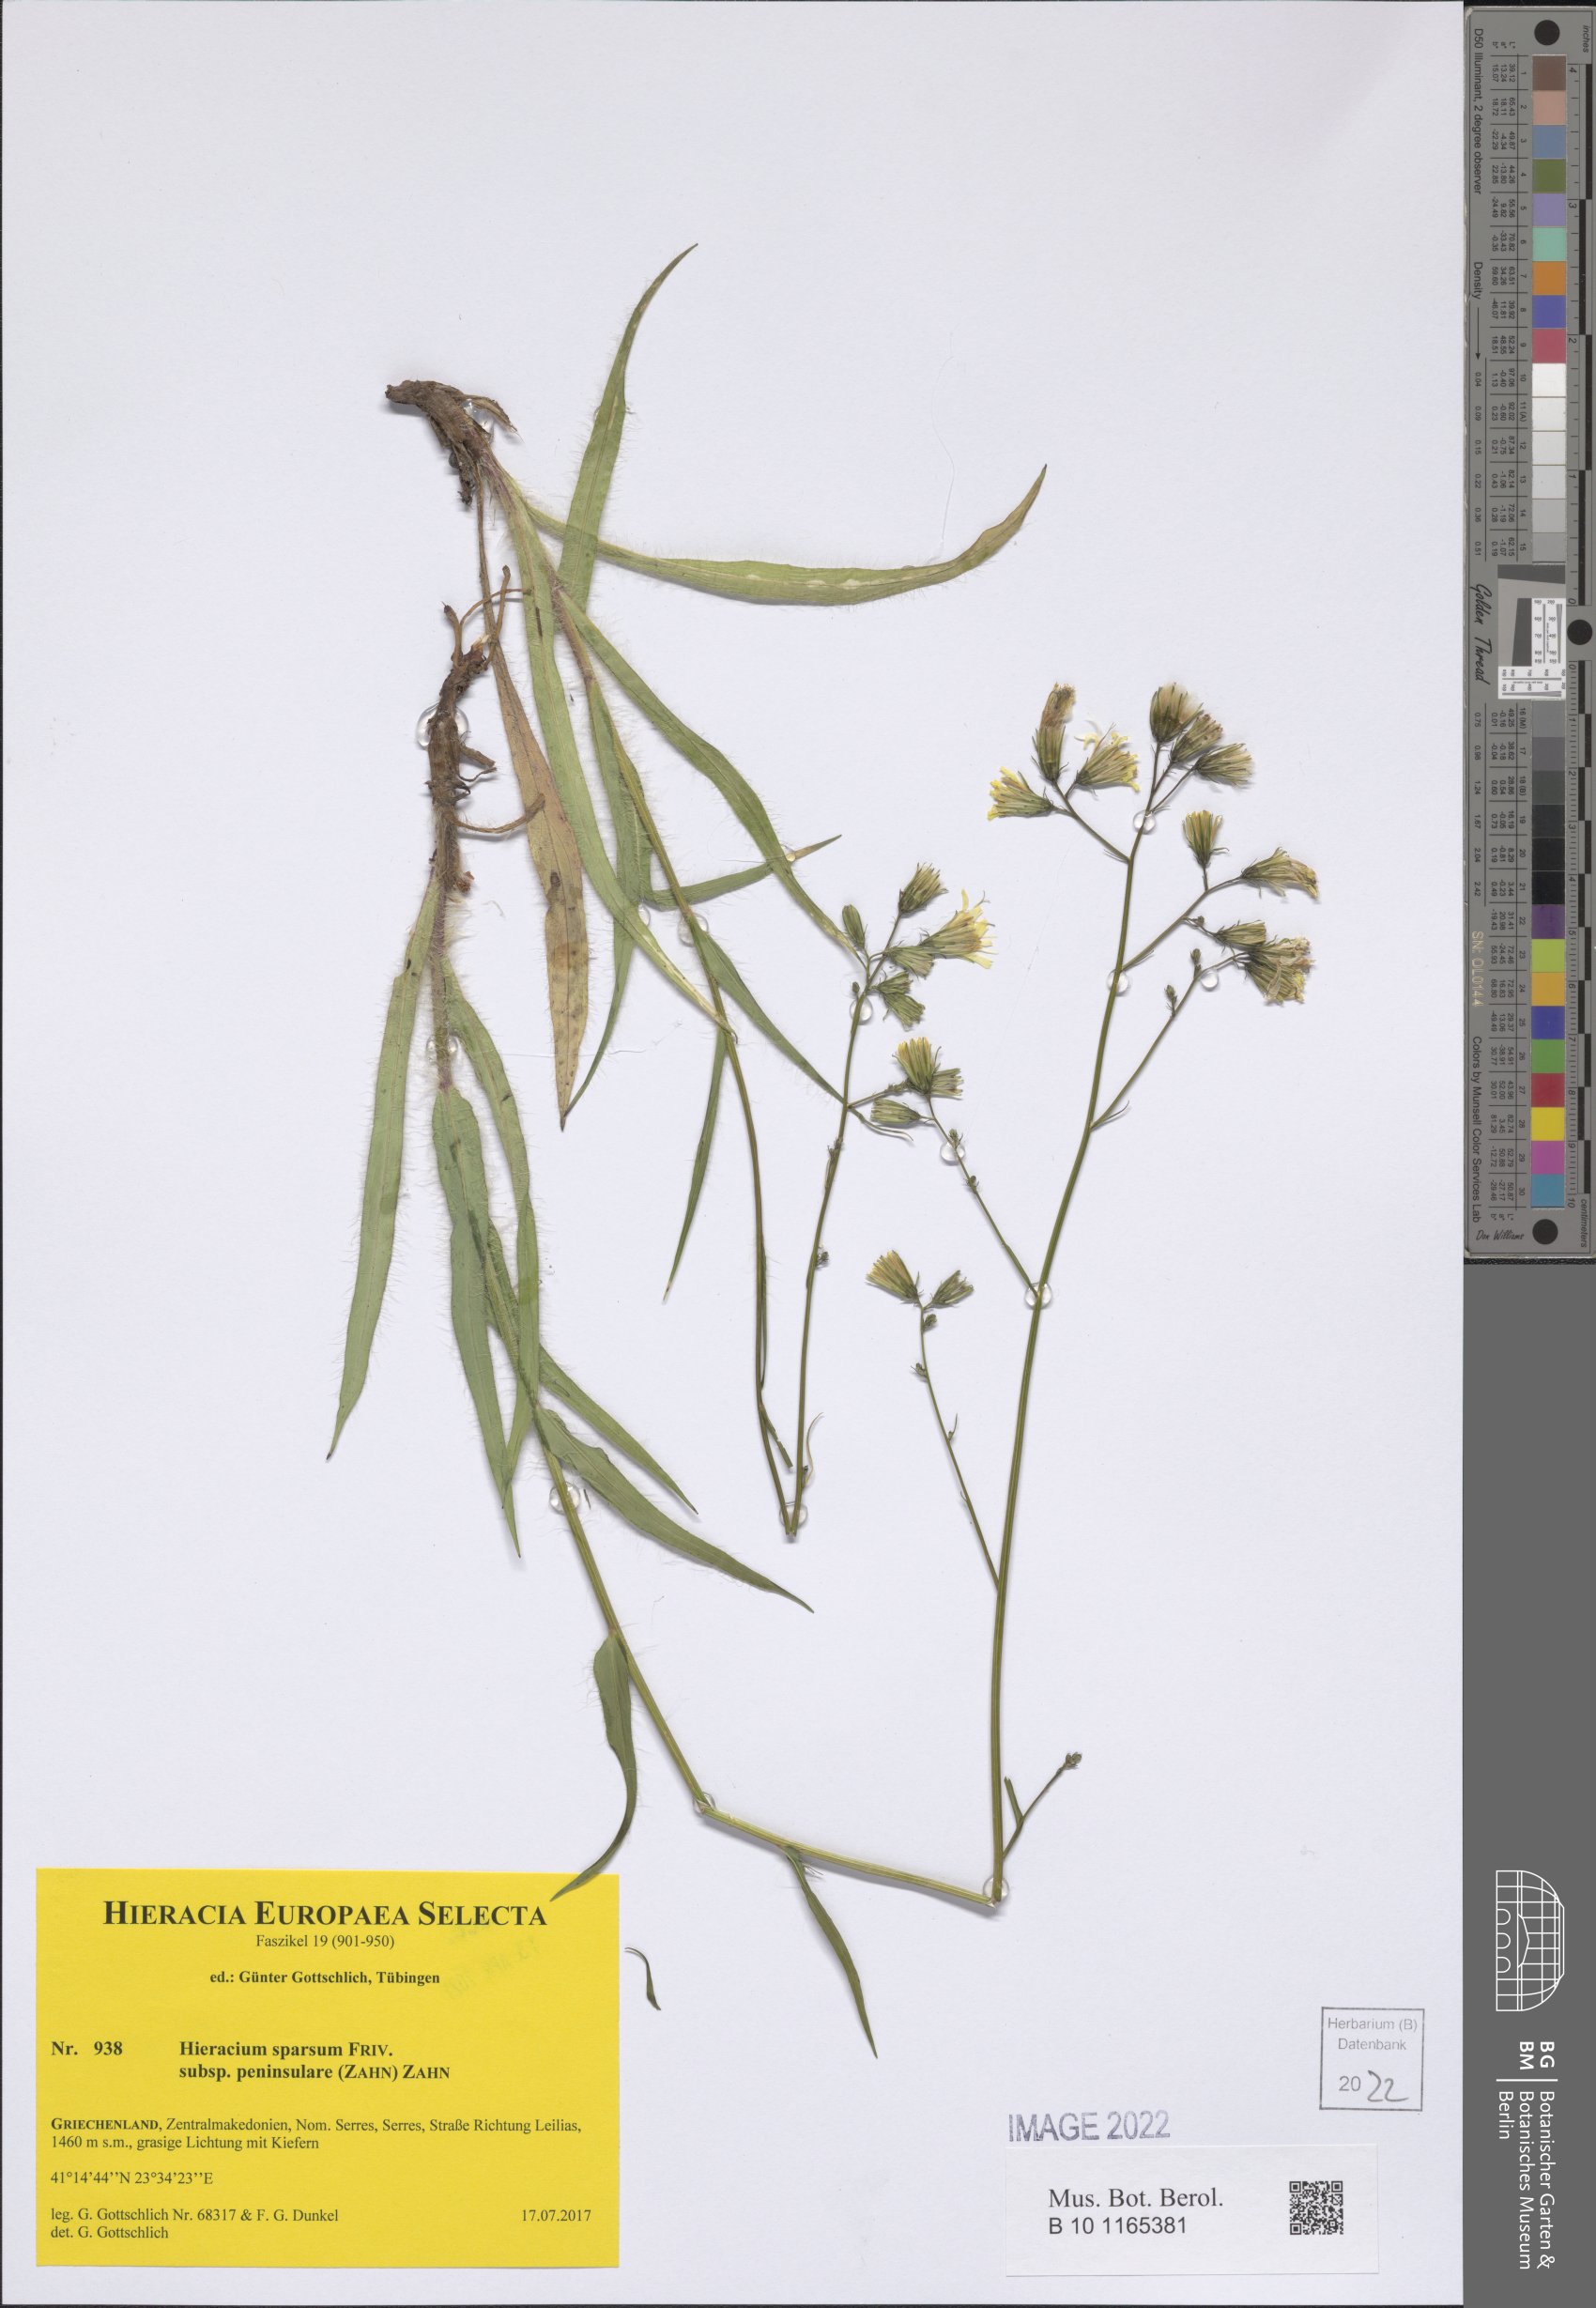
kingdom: Plantae
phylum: Tracheophyta
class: Magnoliopsida
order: Asterales
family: Asteraceae
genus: Hieracium
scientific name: Hieracium sparsum
